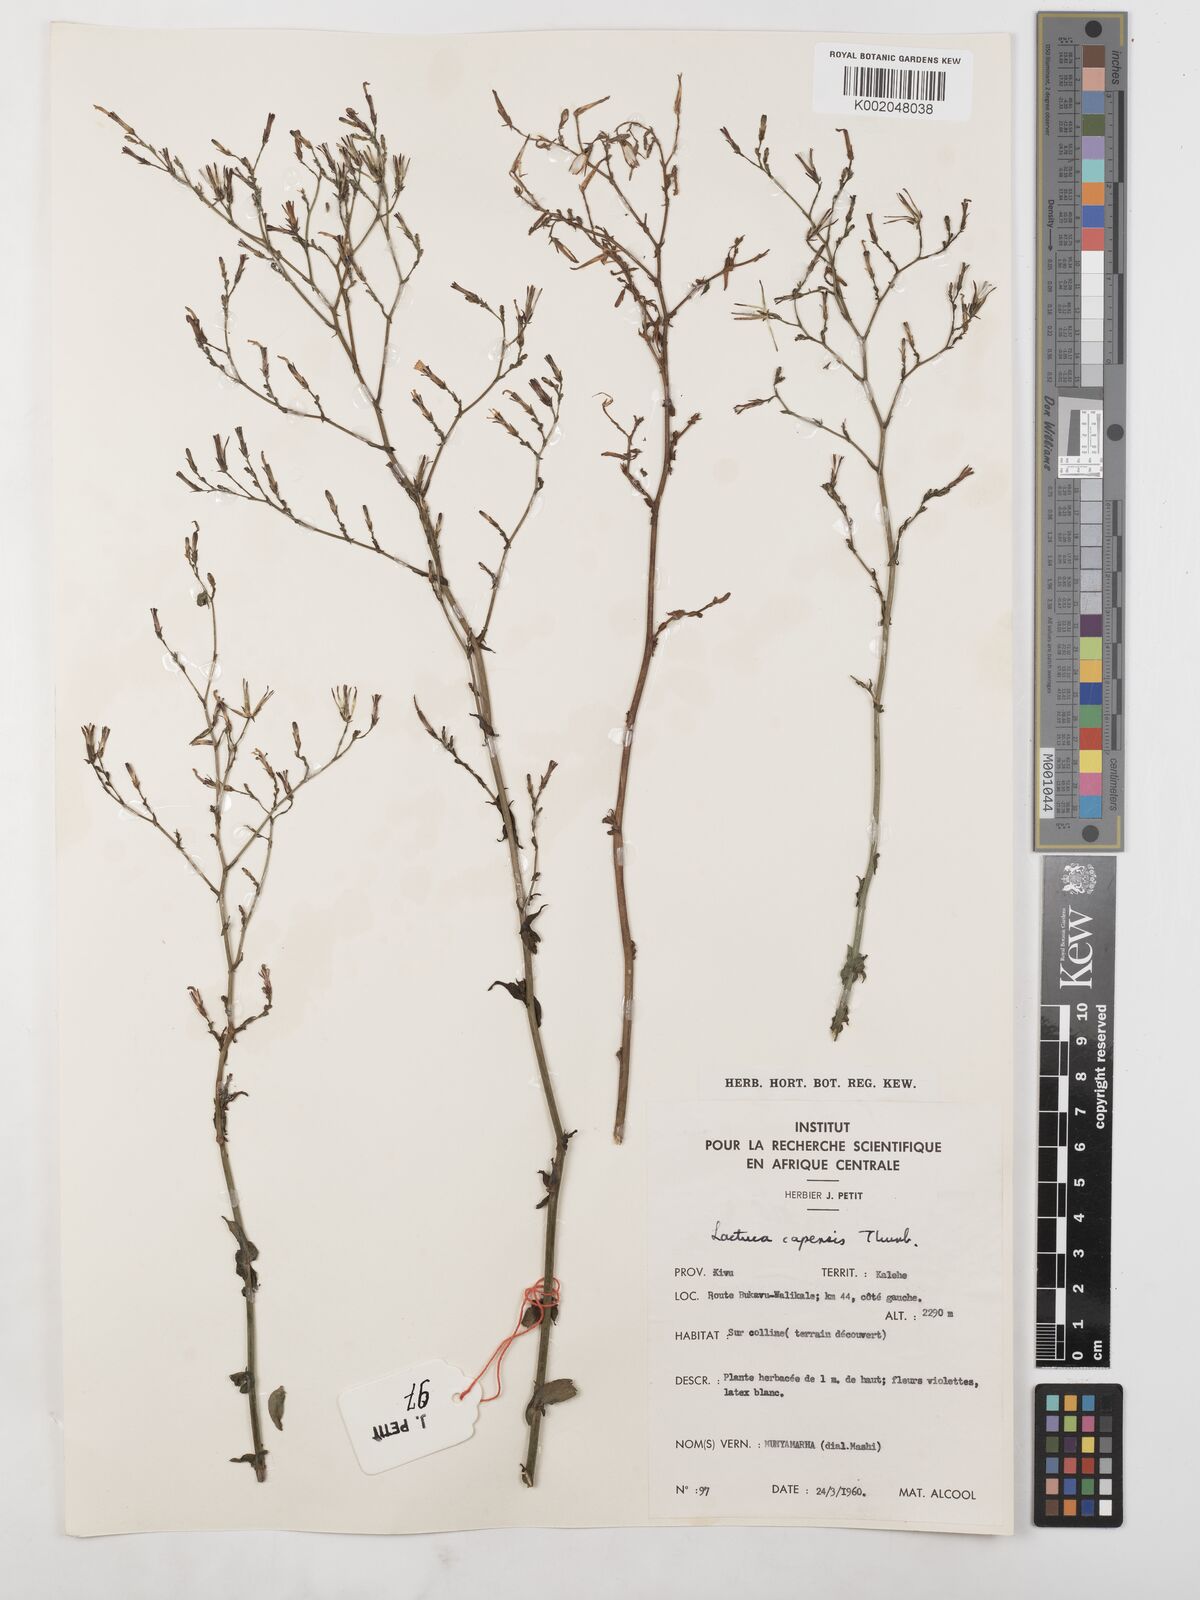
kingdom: Plantae
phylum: Tracheophyta
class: Magnoliopsida
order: Asterales
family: Asteraceae
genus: Lactuca
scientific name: Lactuca inermis
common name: Wild lettuce
